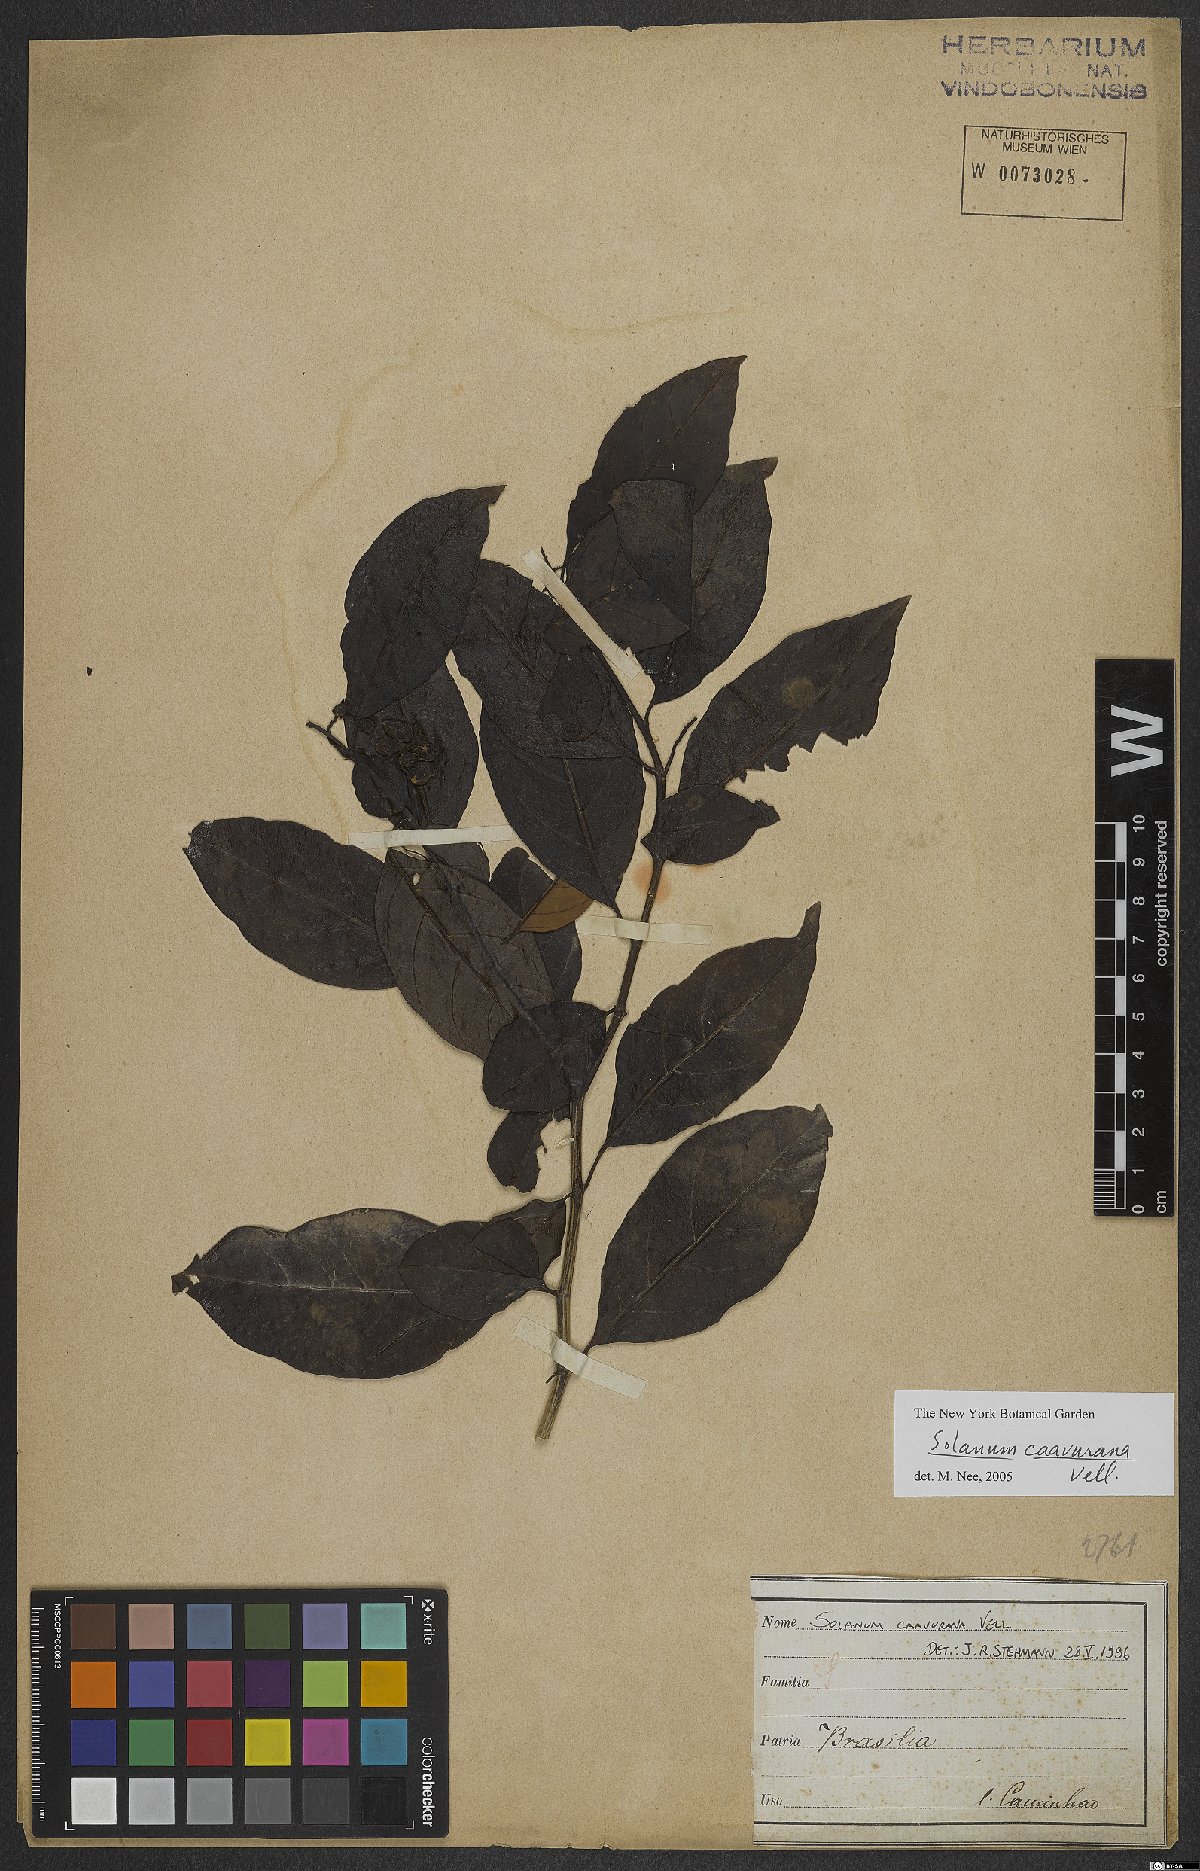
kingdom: Plantae
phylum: Tracheophyta
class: Magnoliopsida
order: Solanales
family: Solanaceae
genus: Solanum
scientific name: Solanum caavurana
